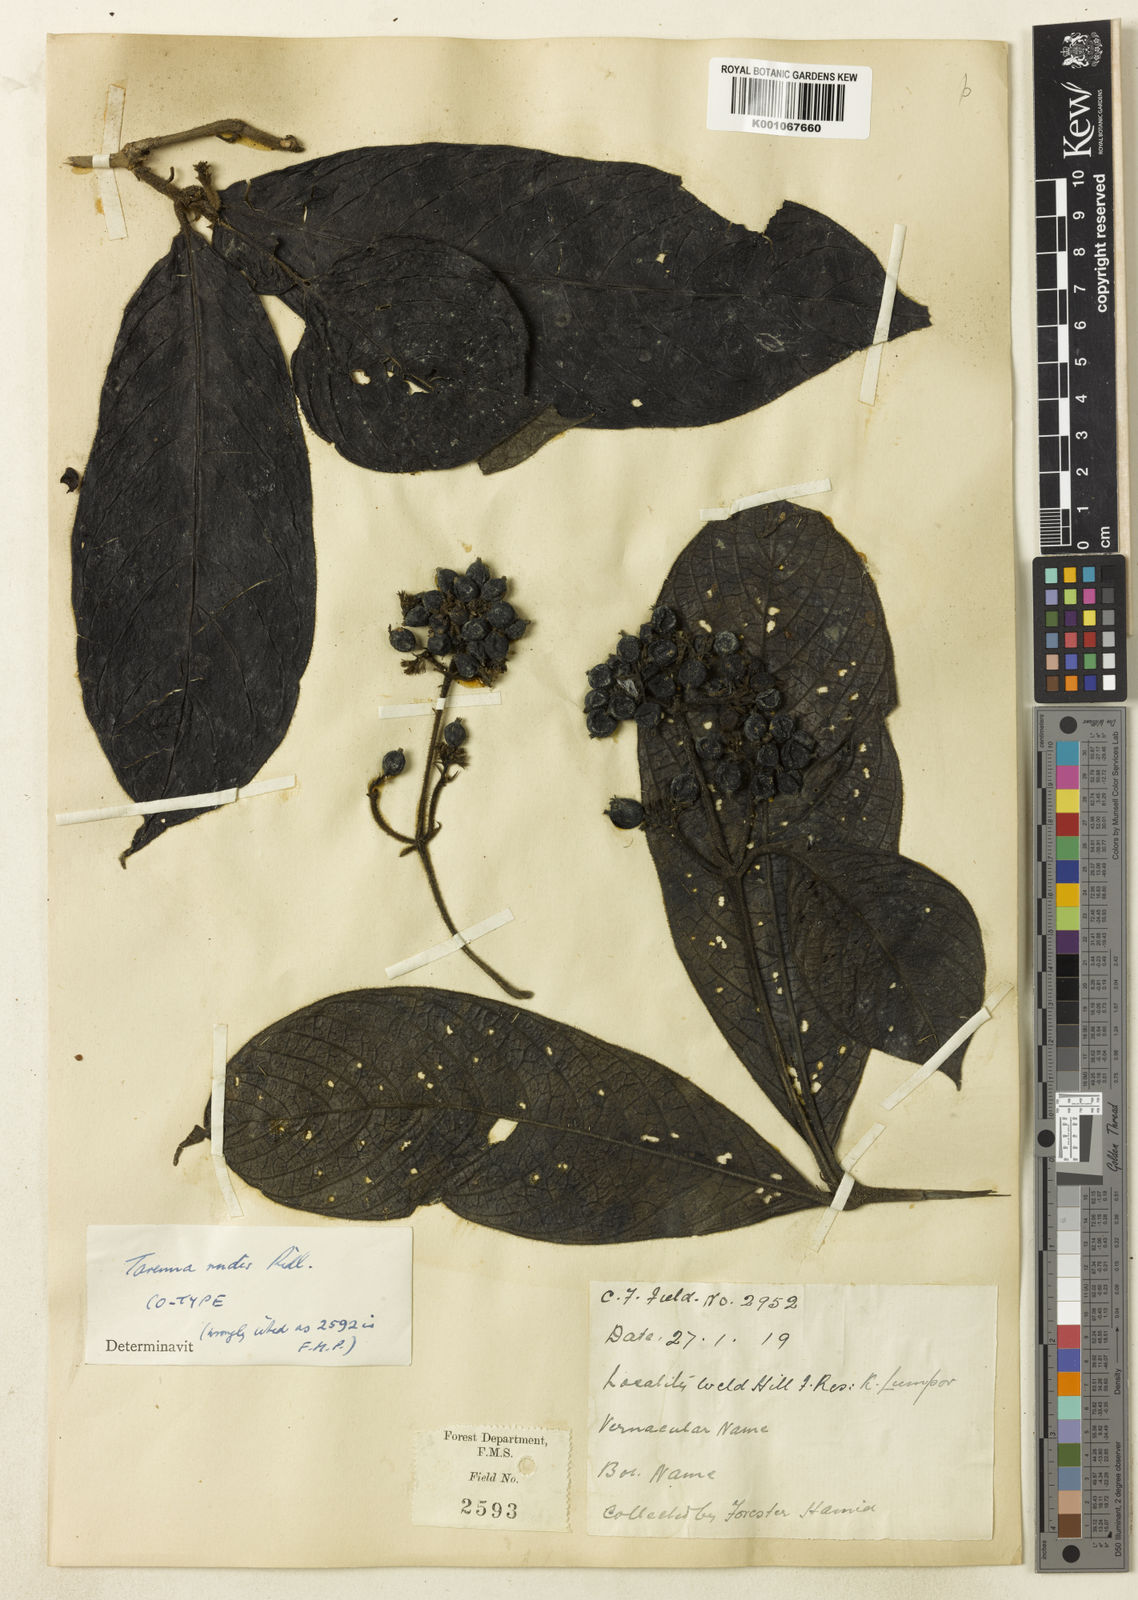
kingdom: Plantae
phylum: Tracheophyta
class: Magnoliopsida
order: Gentianales
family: Rubiaceae
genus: Tarenna
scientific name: Tarenna rudis
